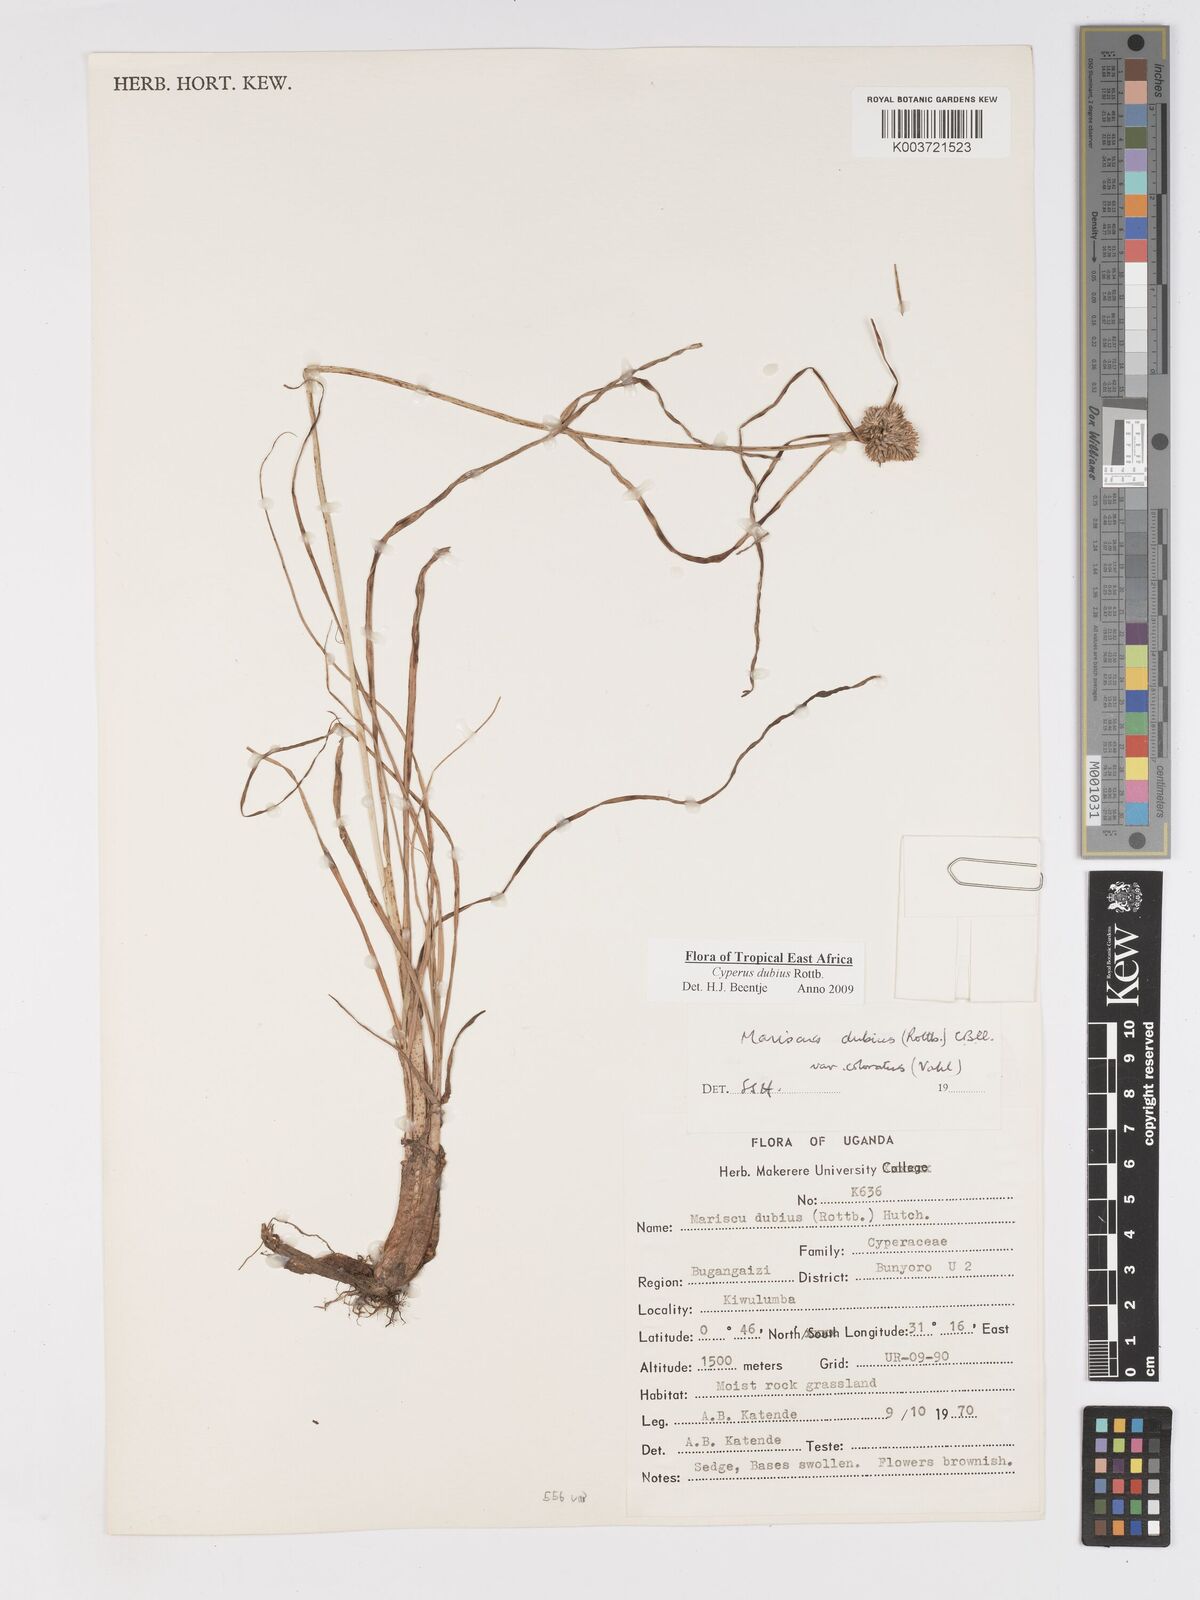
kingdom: Plantae
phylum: Tracheophyta
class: Liliopsida
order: Poales
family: Cyperaceae
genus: Cyperus
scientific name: Cyperus dubius
